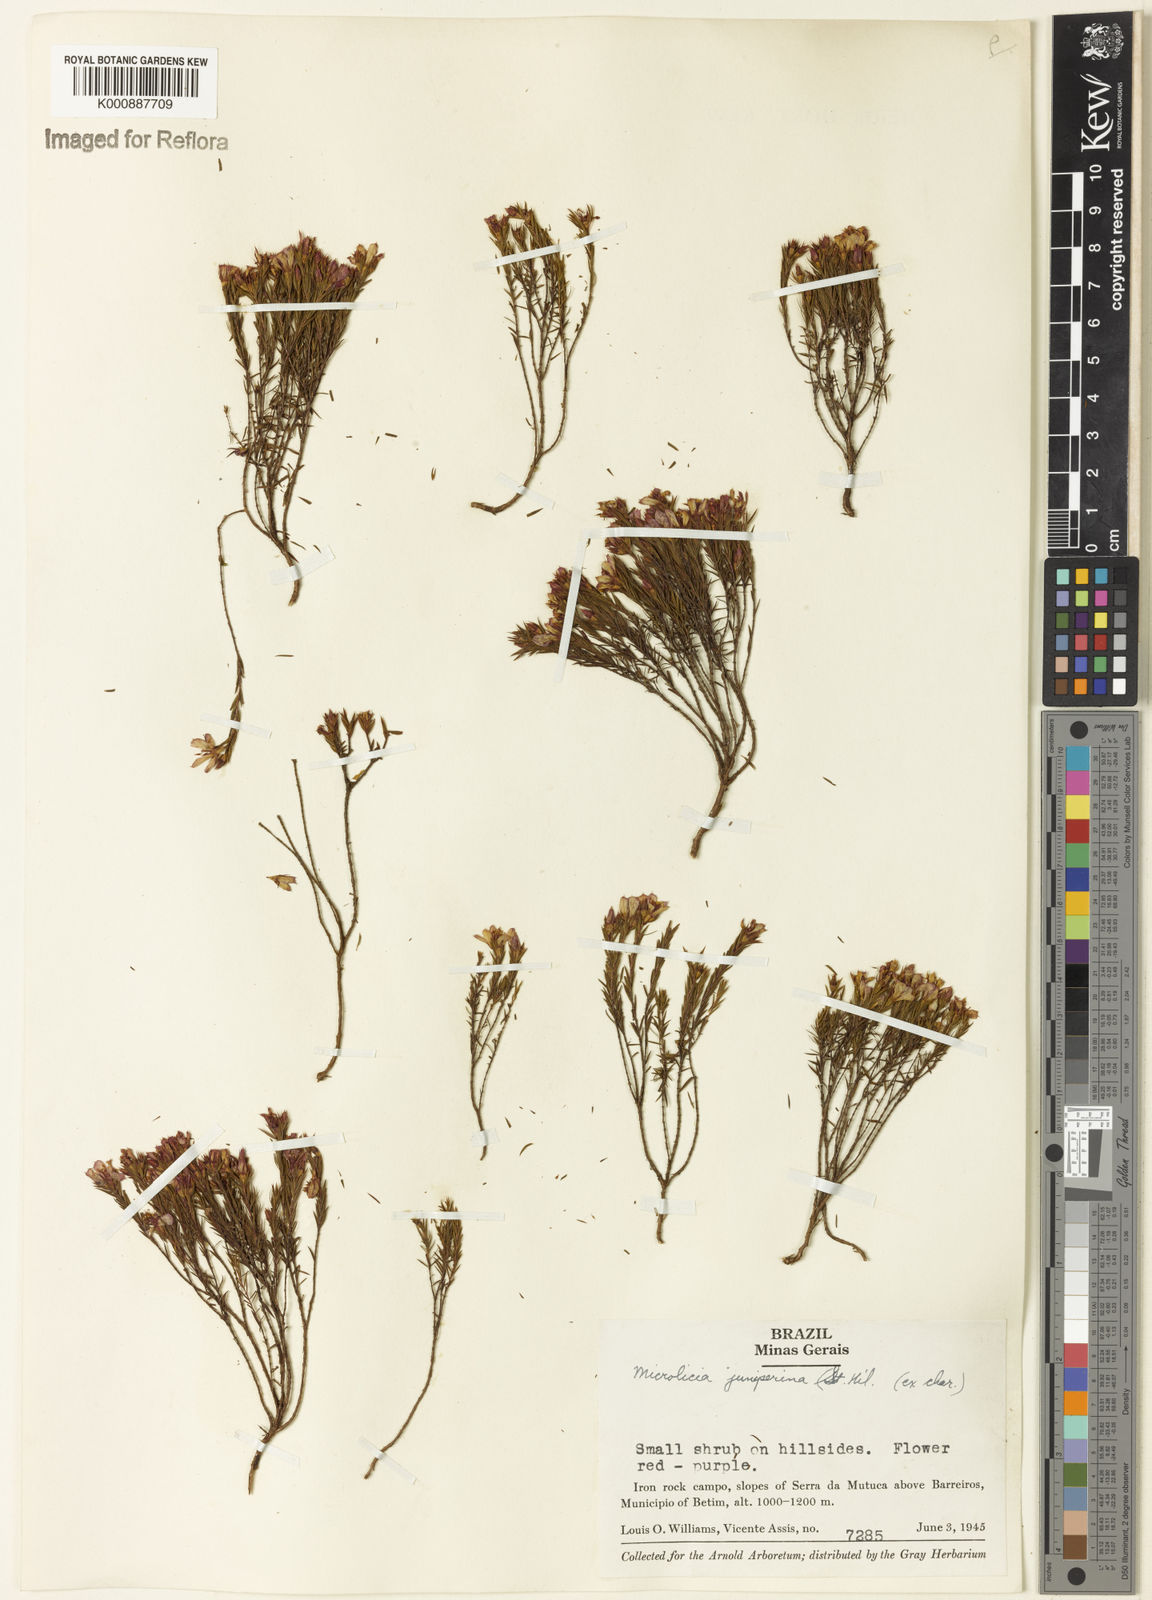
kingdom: Plantae
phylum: Tracheophyta
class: Magnoliopsida
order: Myrtales
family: Melastomataceae
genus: Microlicia
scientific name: Microlicia juniperina
